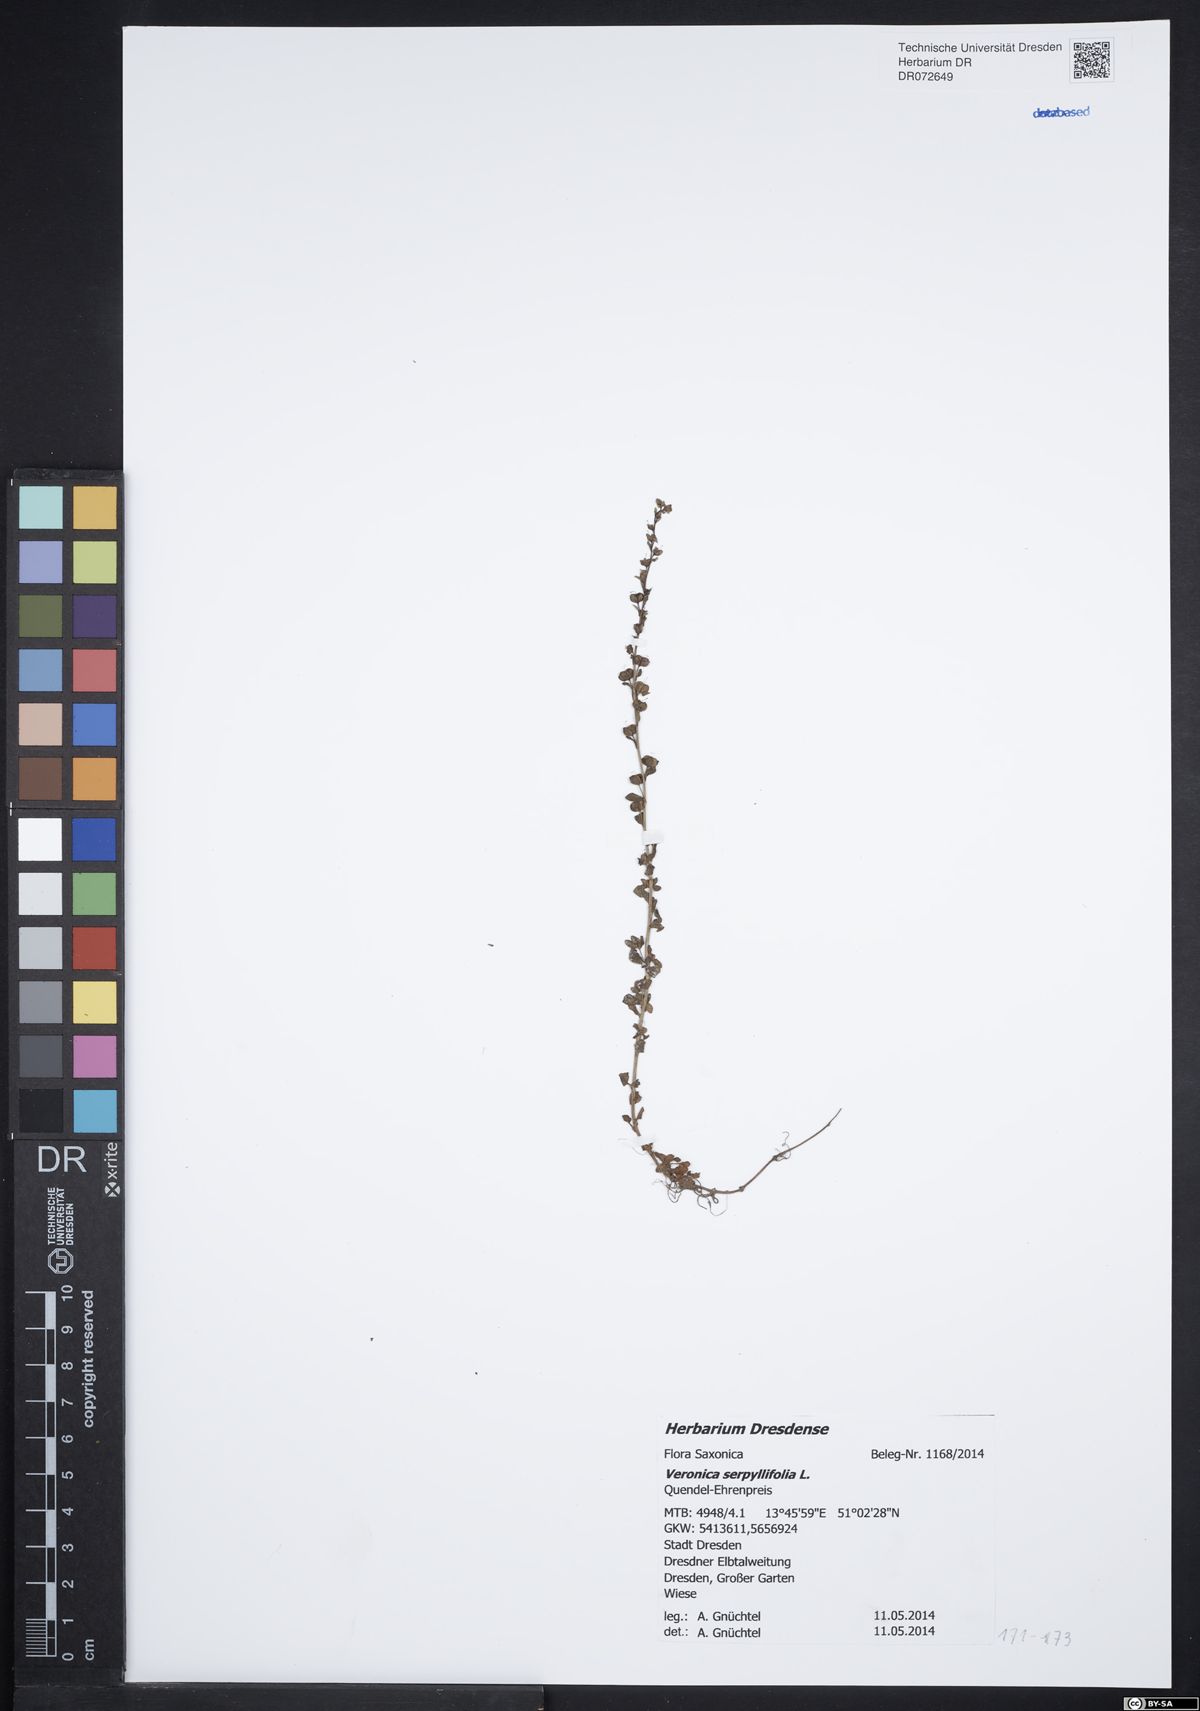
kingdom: Plantae
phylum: Tracheophyta
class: Magnoliopsida
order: Lamiales
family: Plantaginaceae
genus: Veronica
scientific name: Veronica serpyllifolia
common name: Thyme-leaved speedwell
